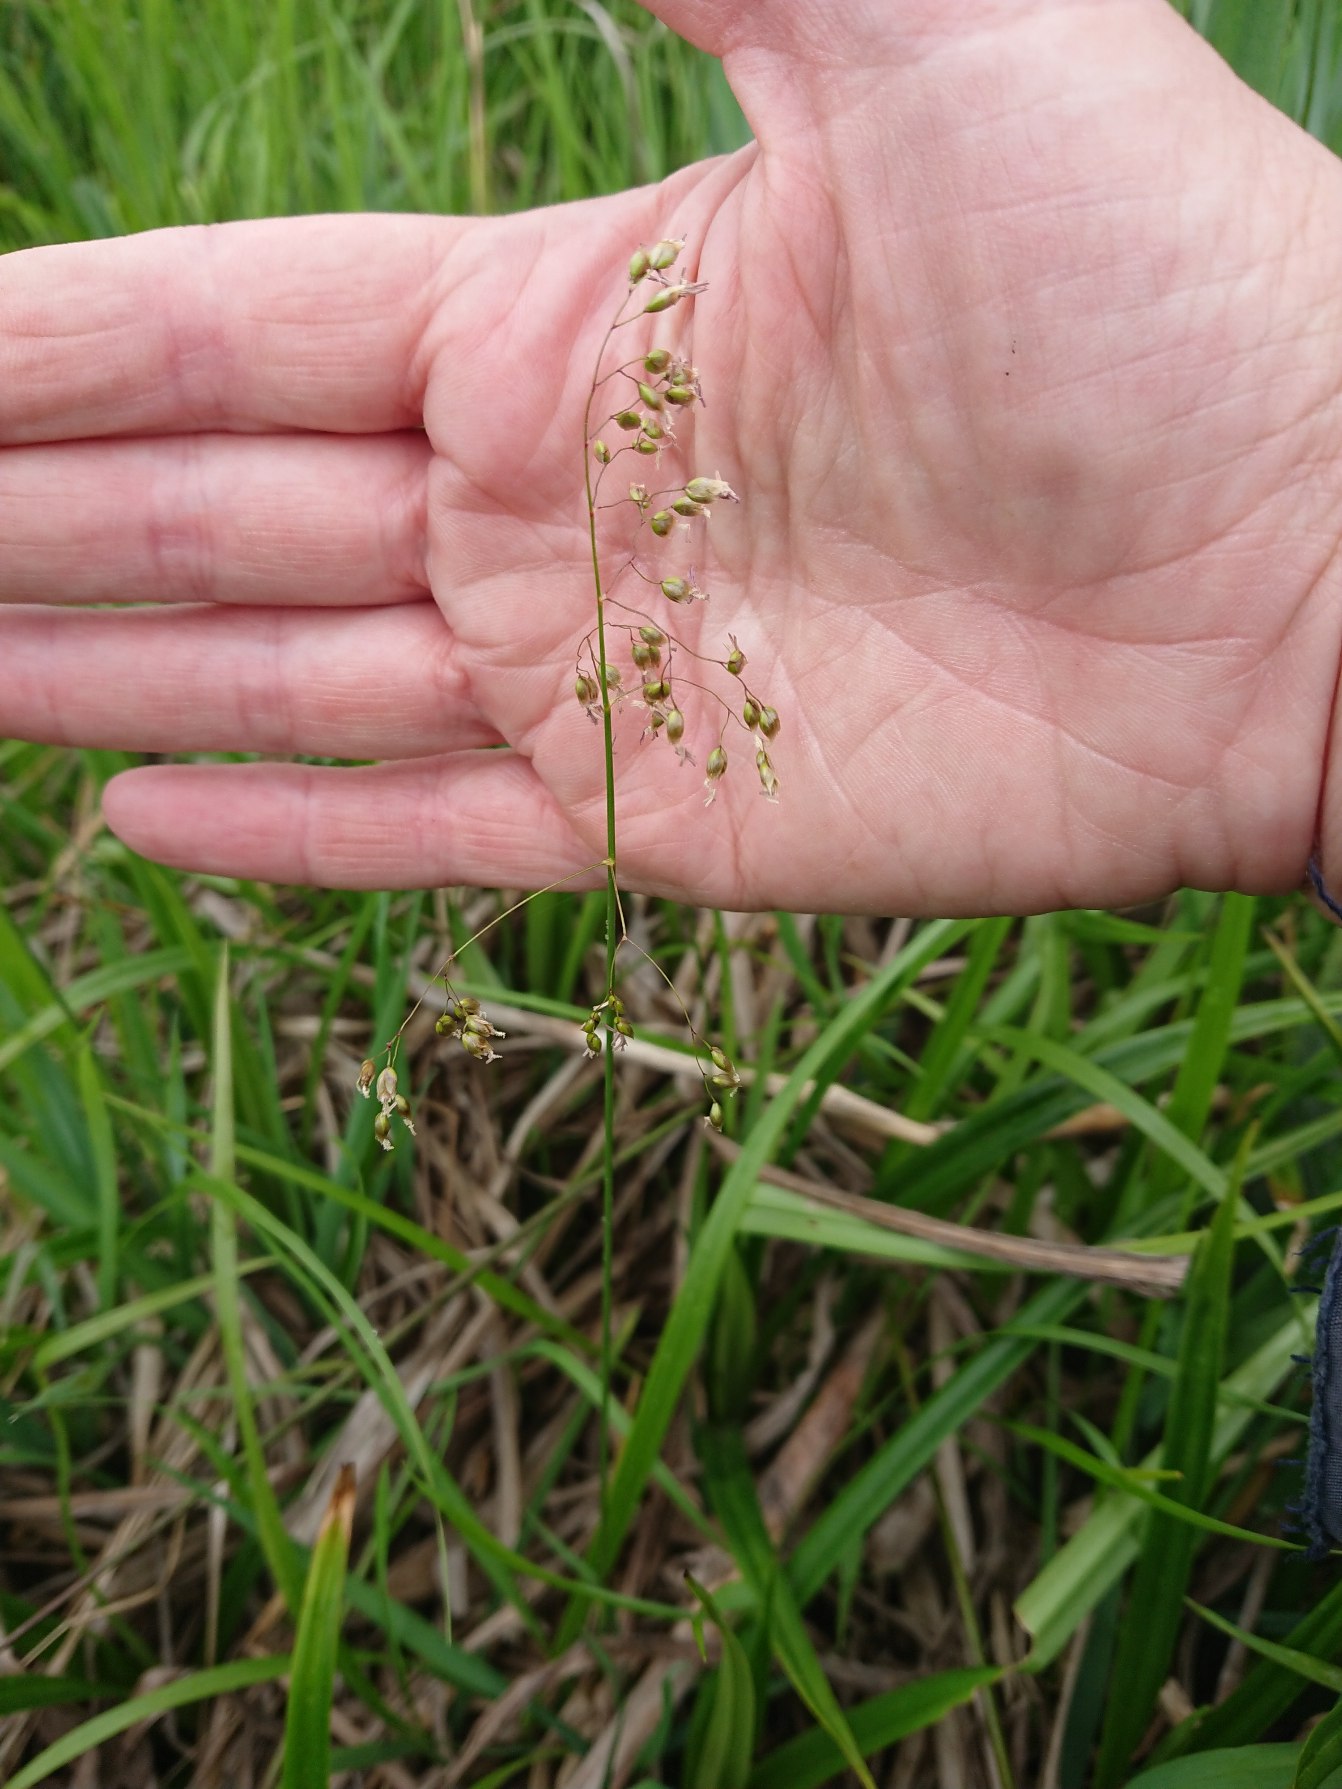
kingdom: Plantae
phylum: Tracheophyta
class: Liliopsida
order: Poales
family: Poaceae
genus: Anthoxanthum
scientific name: Anthoxanthum nitens
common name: Festgræs
